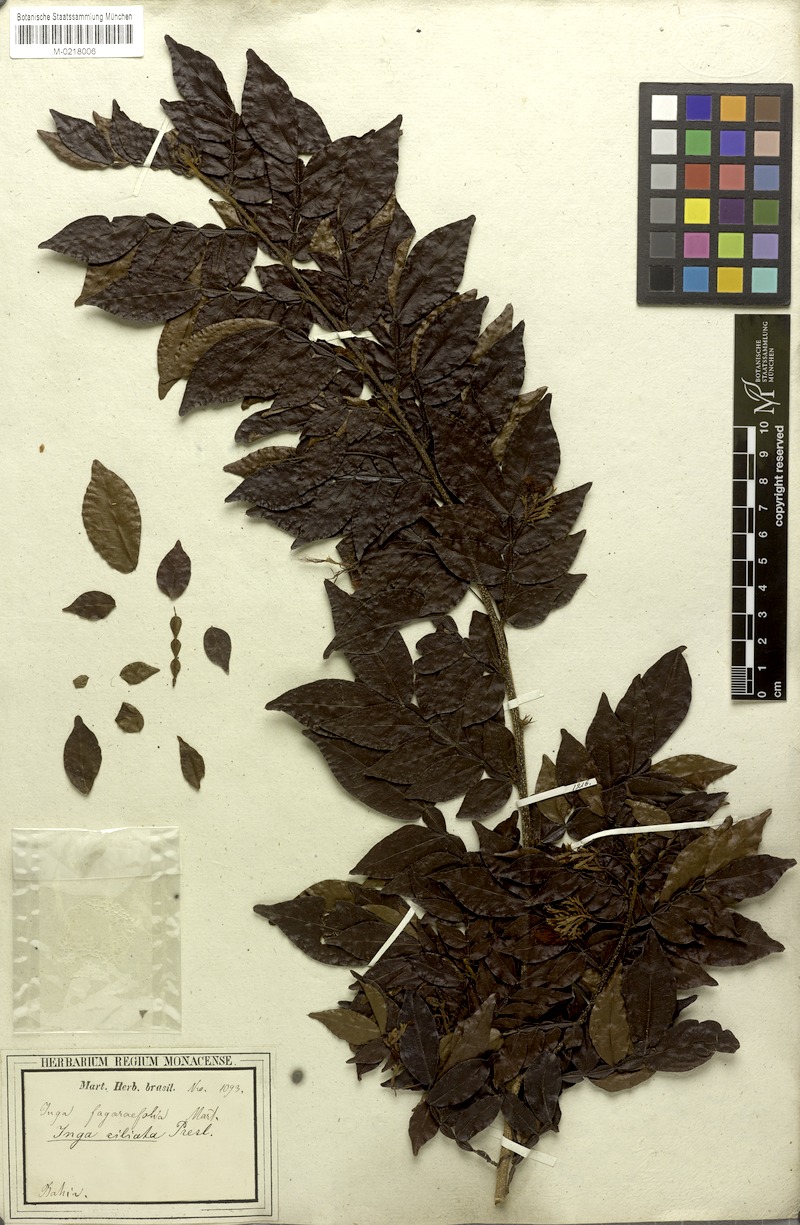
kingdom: Plantae
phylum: Tracheophyta
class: Magnoliopsida
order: Fabales
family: Fabaceae
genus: Inga
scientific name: Inga ciliata
